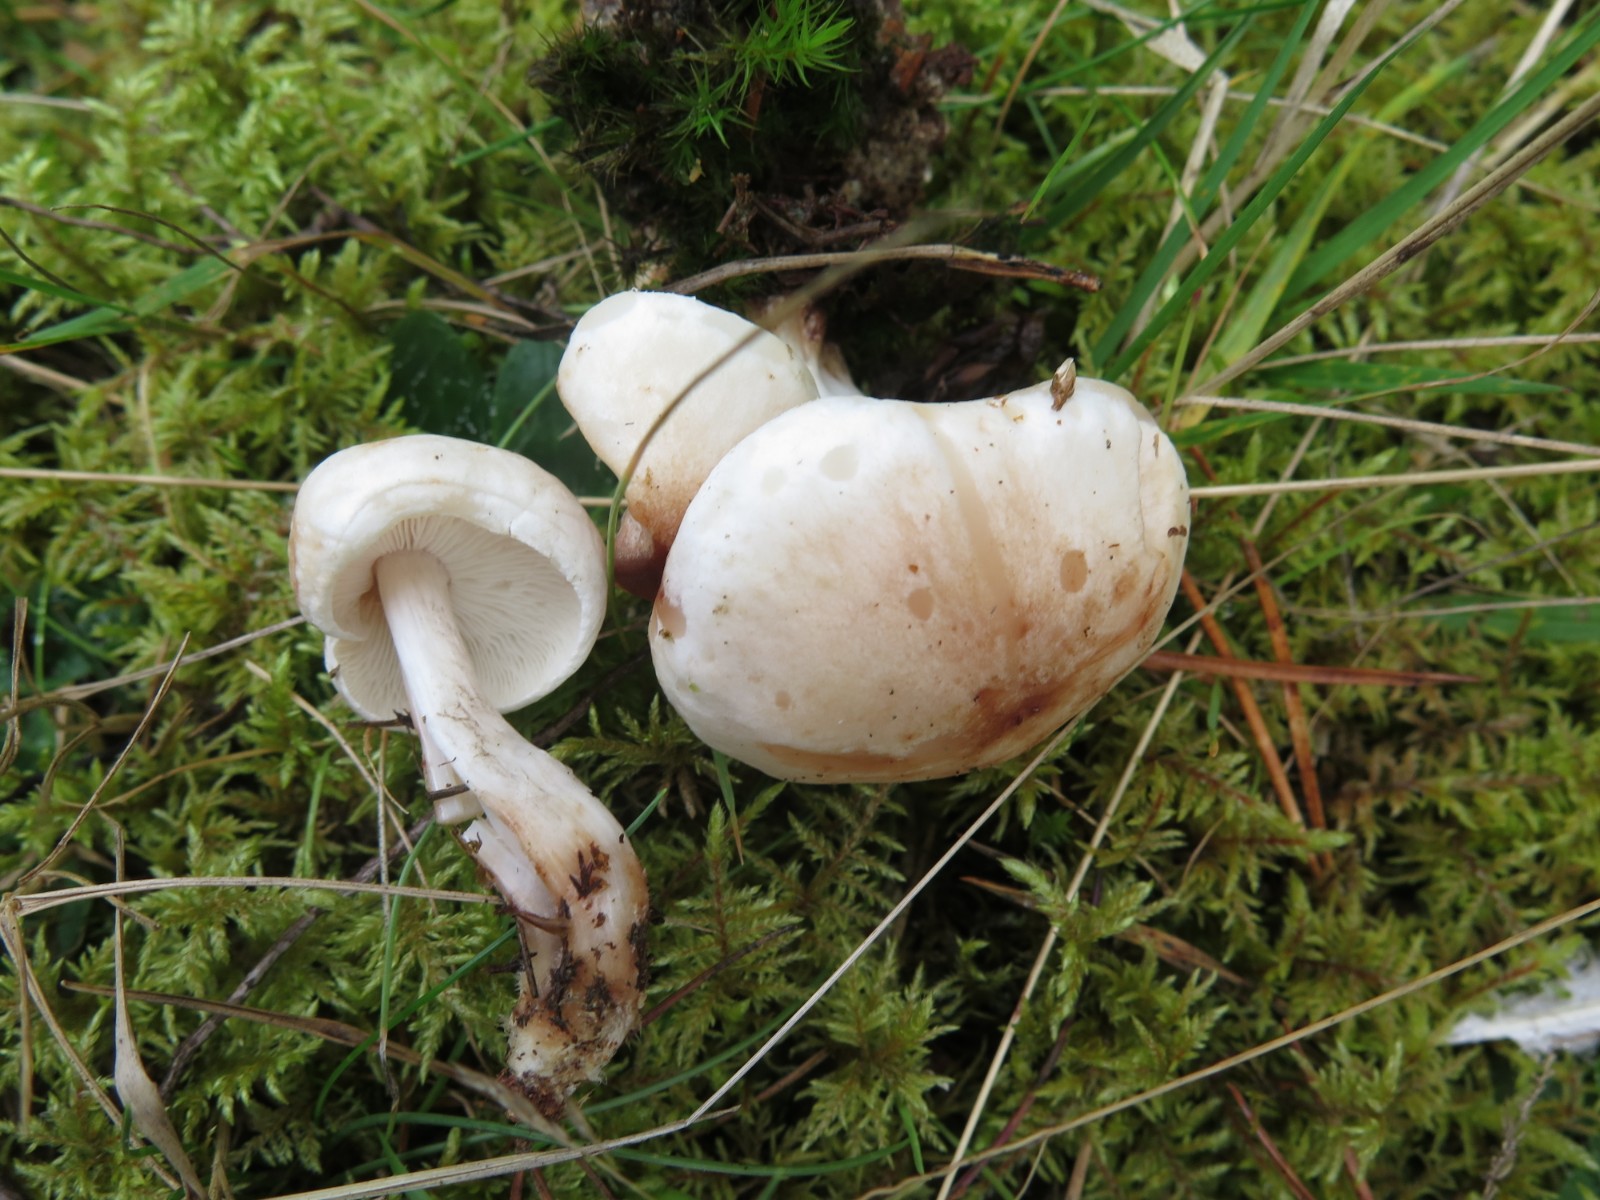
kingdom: Fungi
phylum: Basidiomycota
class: Agaricomycetes
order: Agaricales
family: Omphalotaceae
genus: Rhodocollybia
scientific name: Rhodocollybia maculata
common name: plettet fladhat
